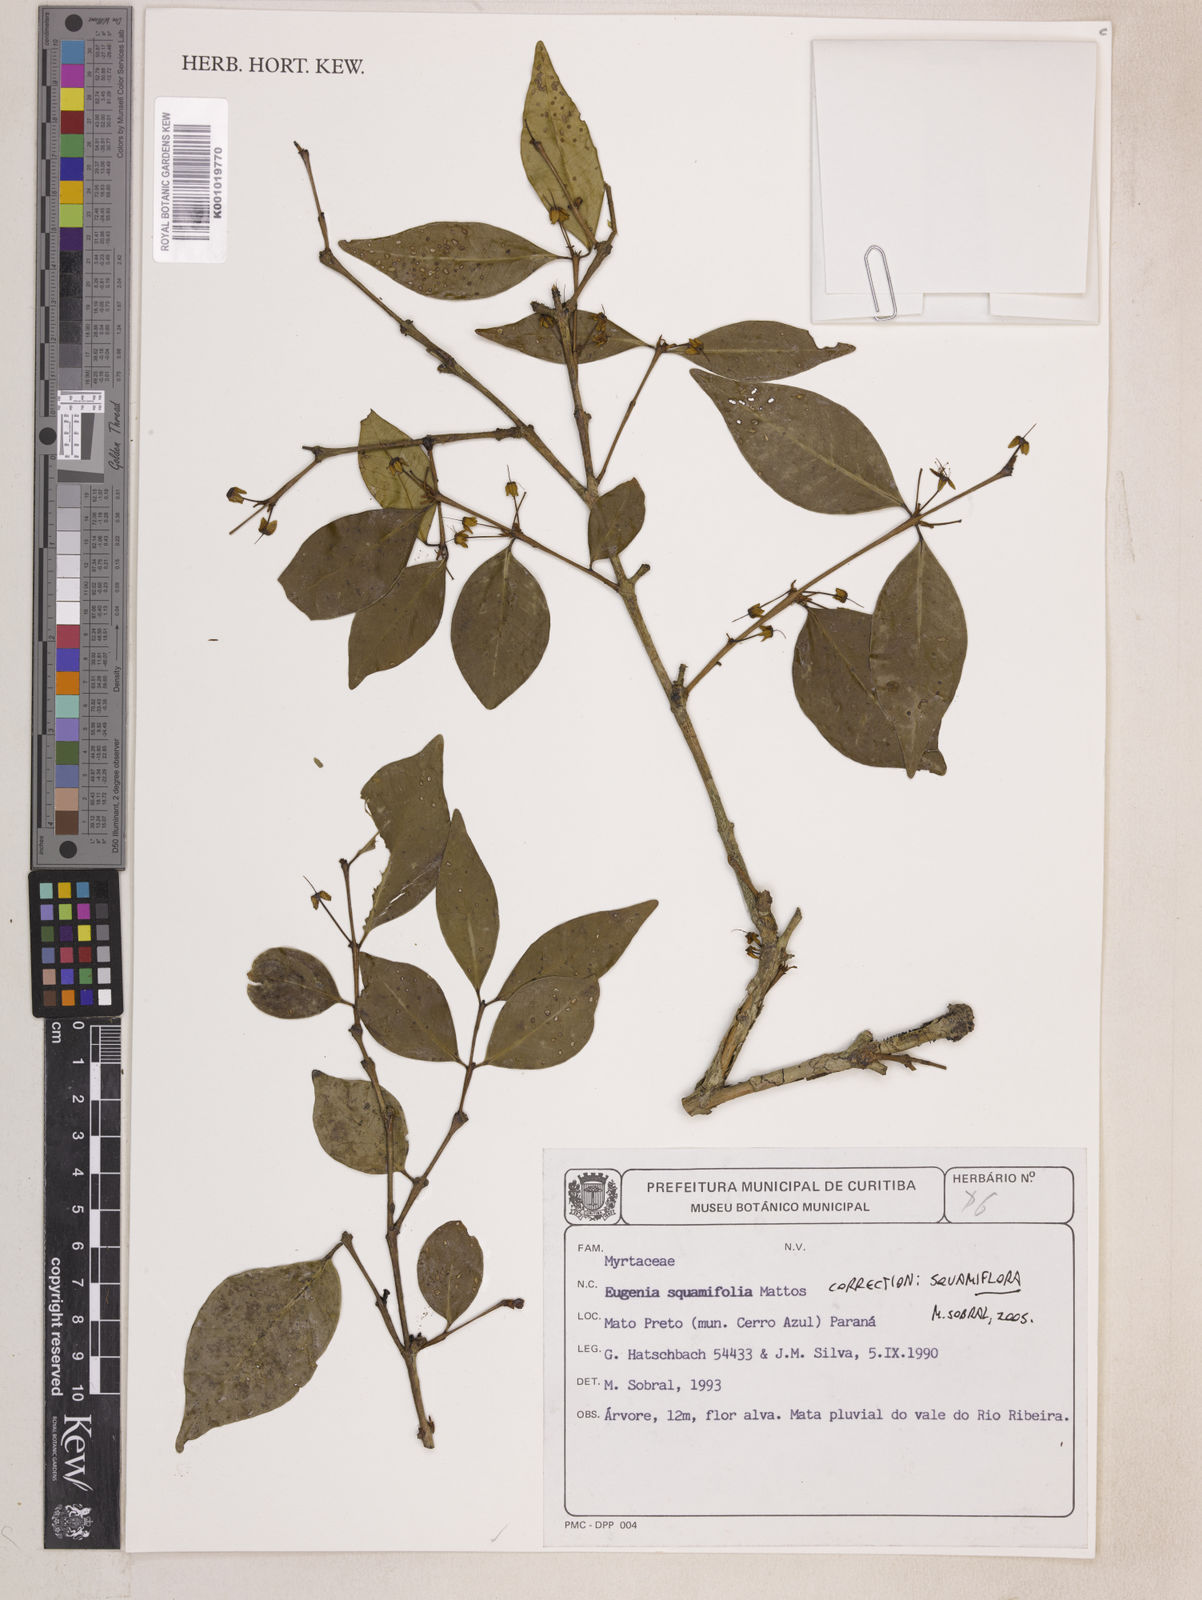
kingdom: Plantae
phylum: Tracheophyta
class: Magnoliopsida
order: Myrtales
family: Myrtaceae
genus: Eugenia
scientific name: Eugenia squamiflora
